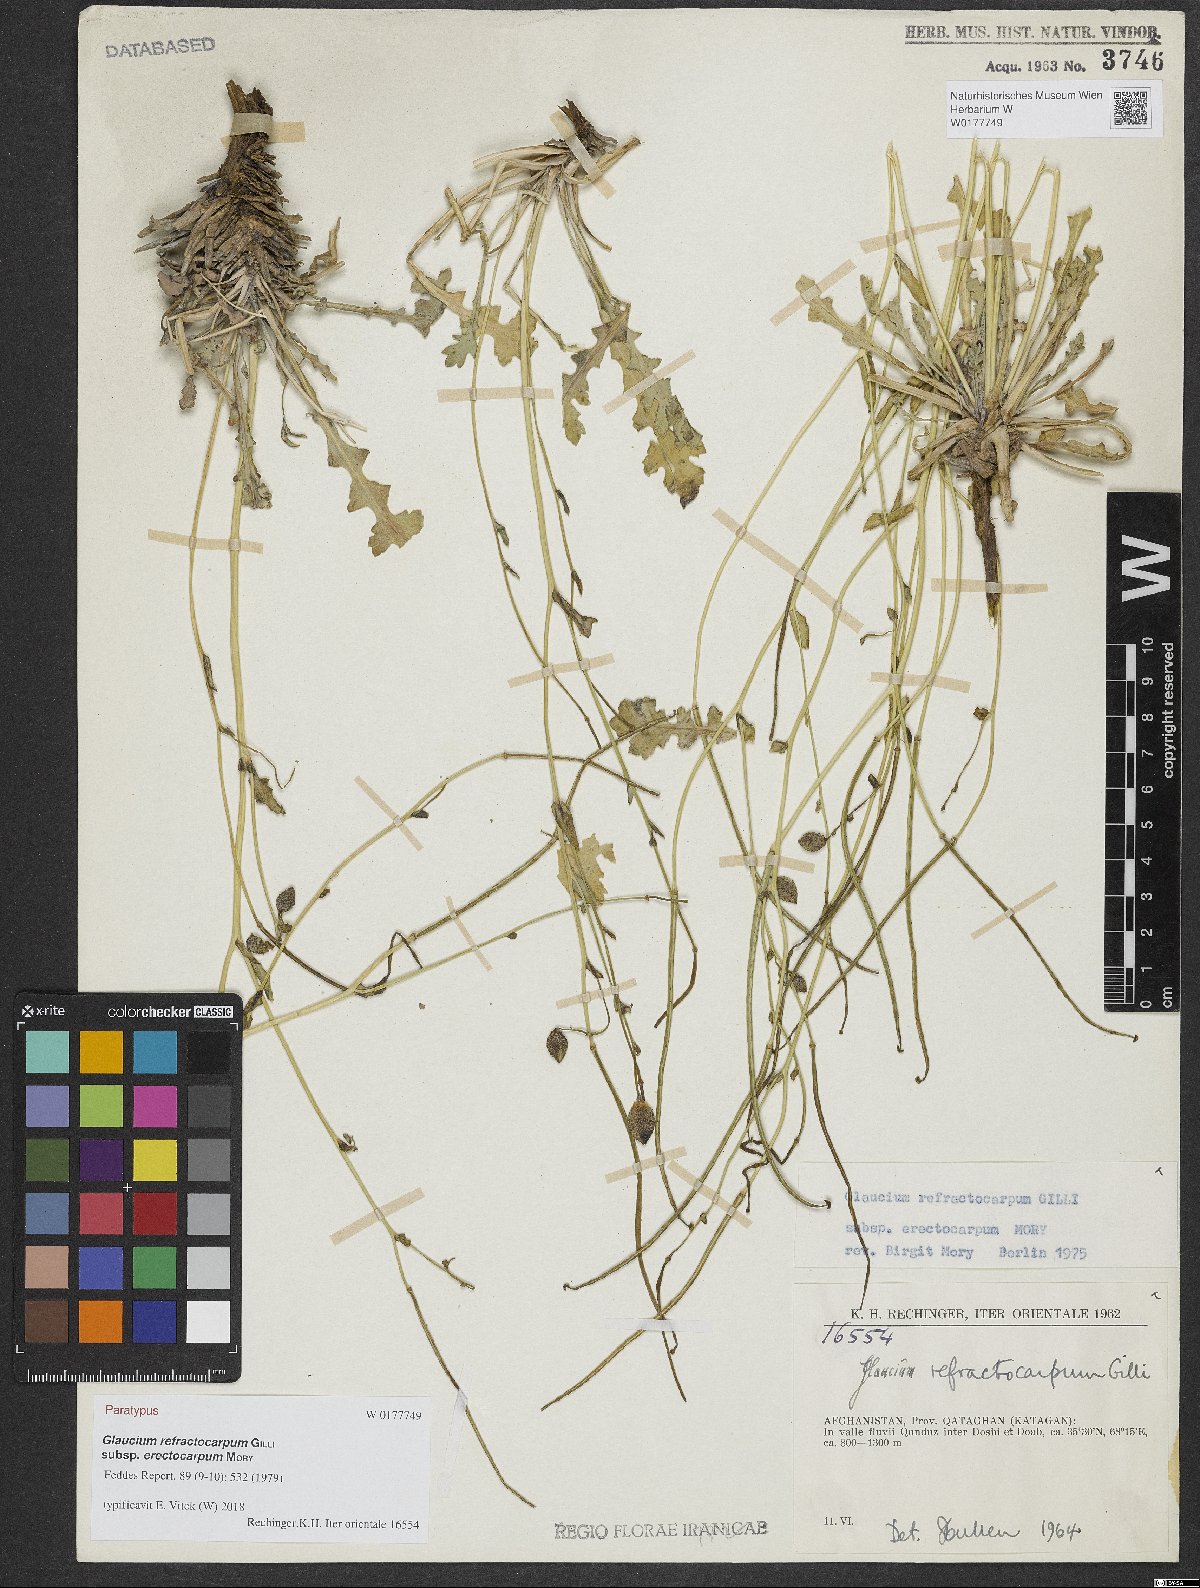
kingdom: Plantae
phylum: Tracheophyta
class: Magnoliopsida
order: Ranunculales
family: Papaveraceae
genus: Glaucium
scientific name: Glaucium refractocarpum
